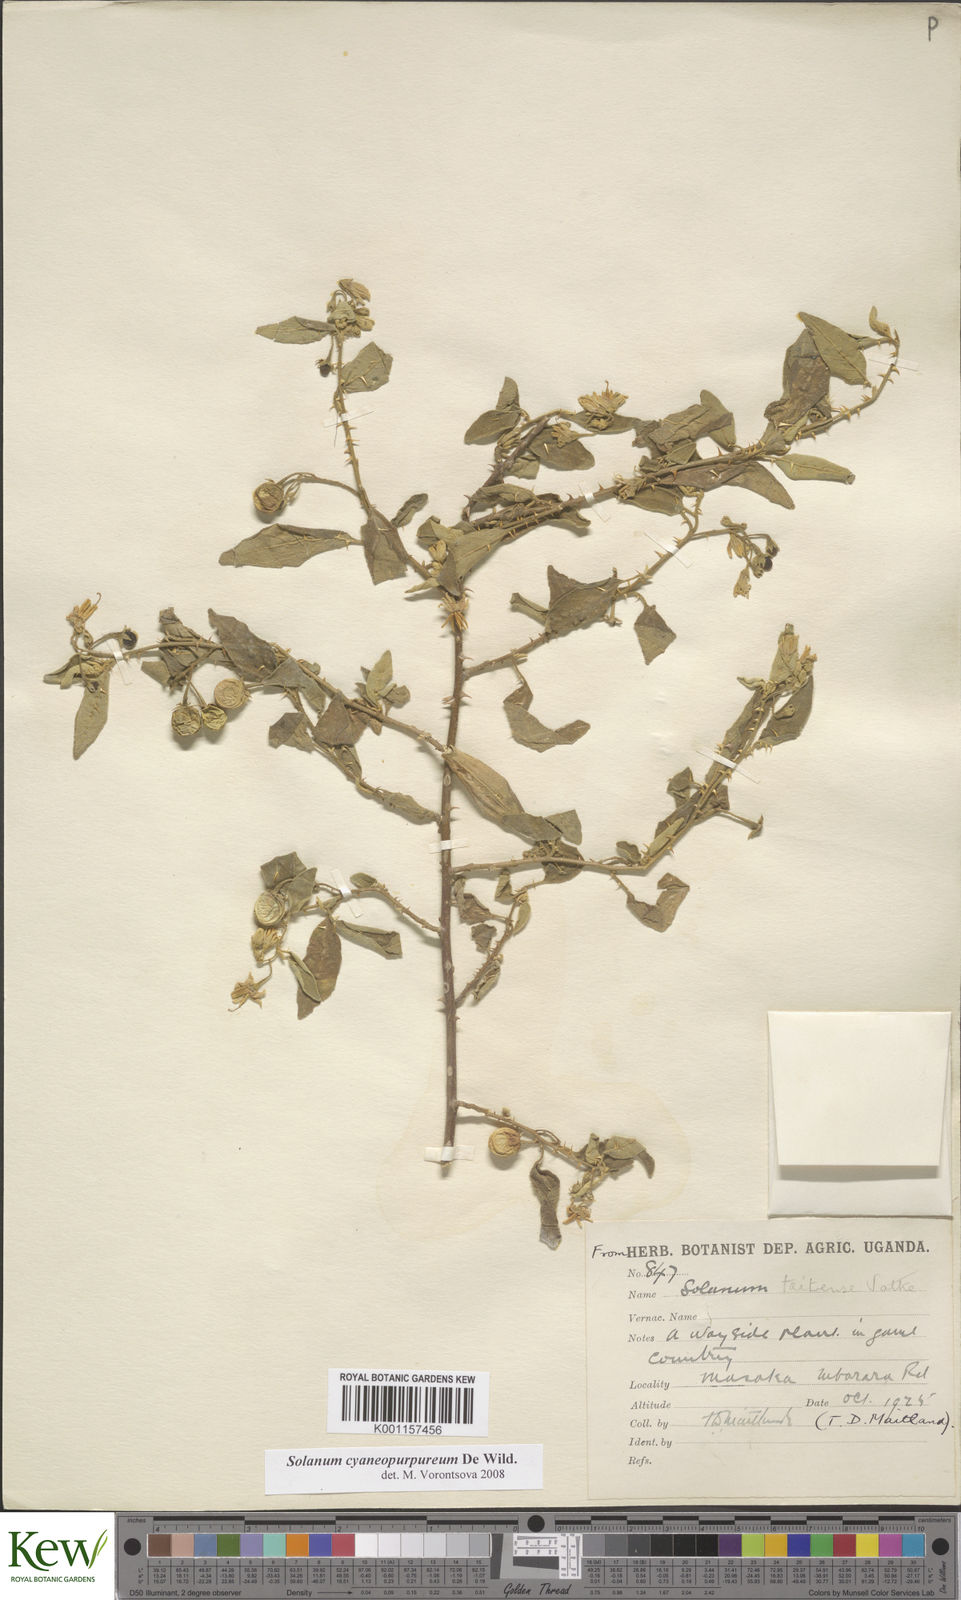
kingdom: Plantae
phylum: Tracheophyta
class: Magnoliopsida
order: Solanales
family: Solanaceae
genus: Solanum
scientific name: Solanum cyaneopurpureum
